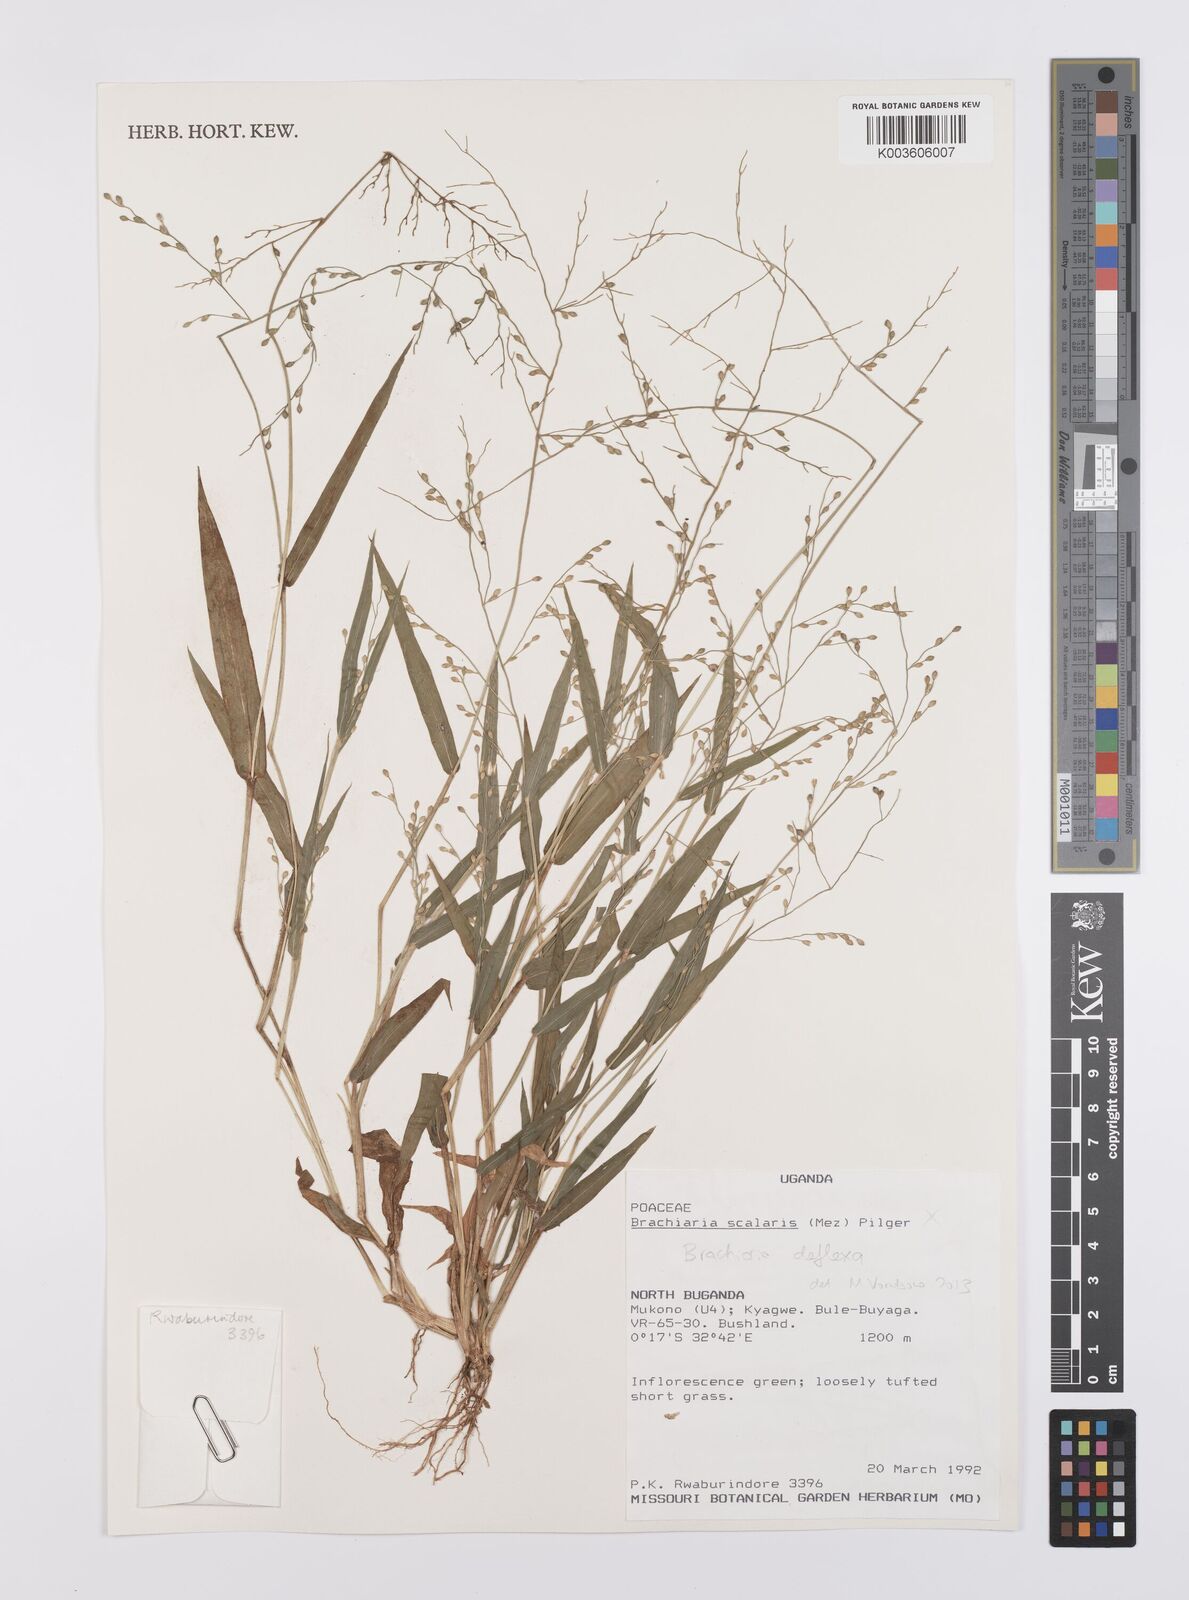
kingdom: Plantae
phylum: Tracheophyta
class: Liliopsida
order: Poales
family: Poaceae
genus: Urochloa
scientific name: Urochloa deflexa
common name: Guinea millet
